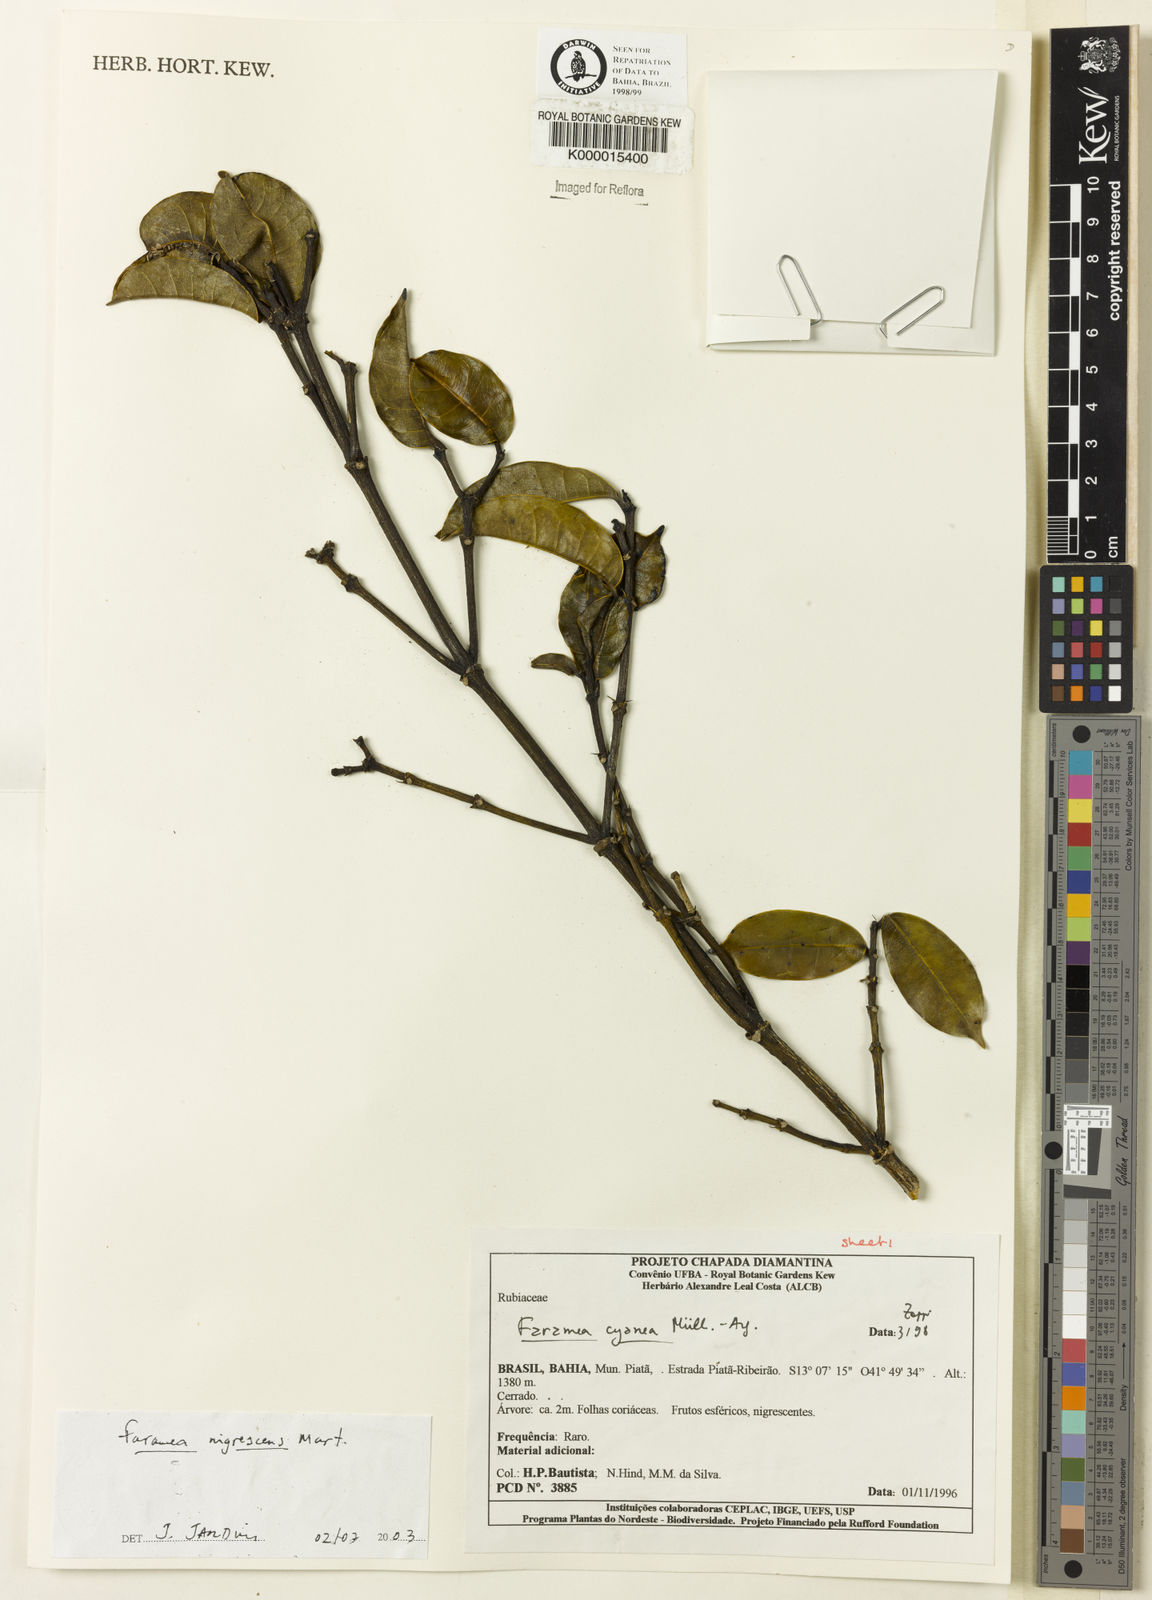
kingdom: Plantae
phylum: Tracheophyta
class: Magnoliopsida
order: Gentianales
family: Rubiaceae
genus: Faramea
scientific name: Faramea nigrescens
